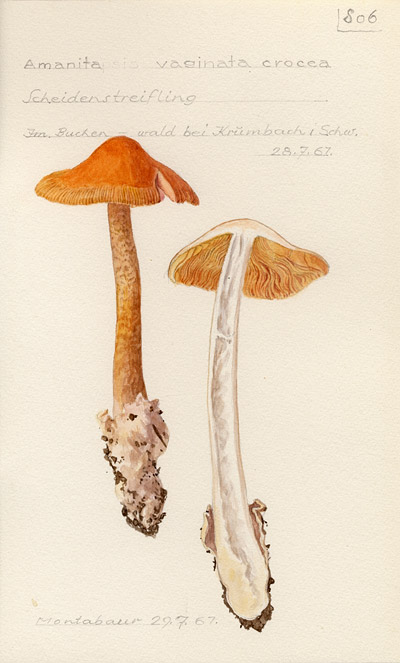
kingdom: Fungi
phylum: Basidiomycota
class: Agaricomycetes
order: Agaricales
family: Amanitaceae
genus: Amanita
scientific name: Amanita crocea
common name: Orange grisette
